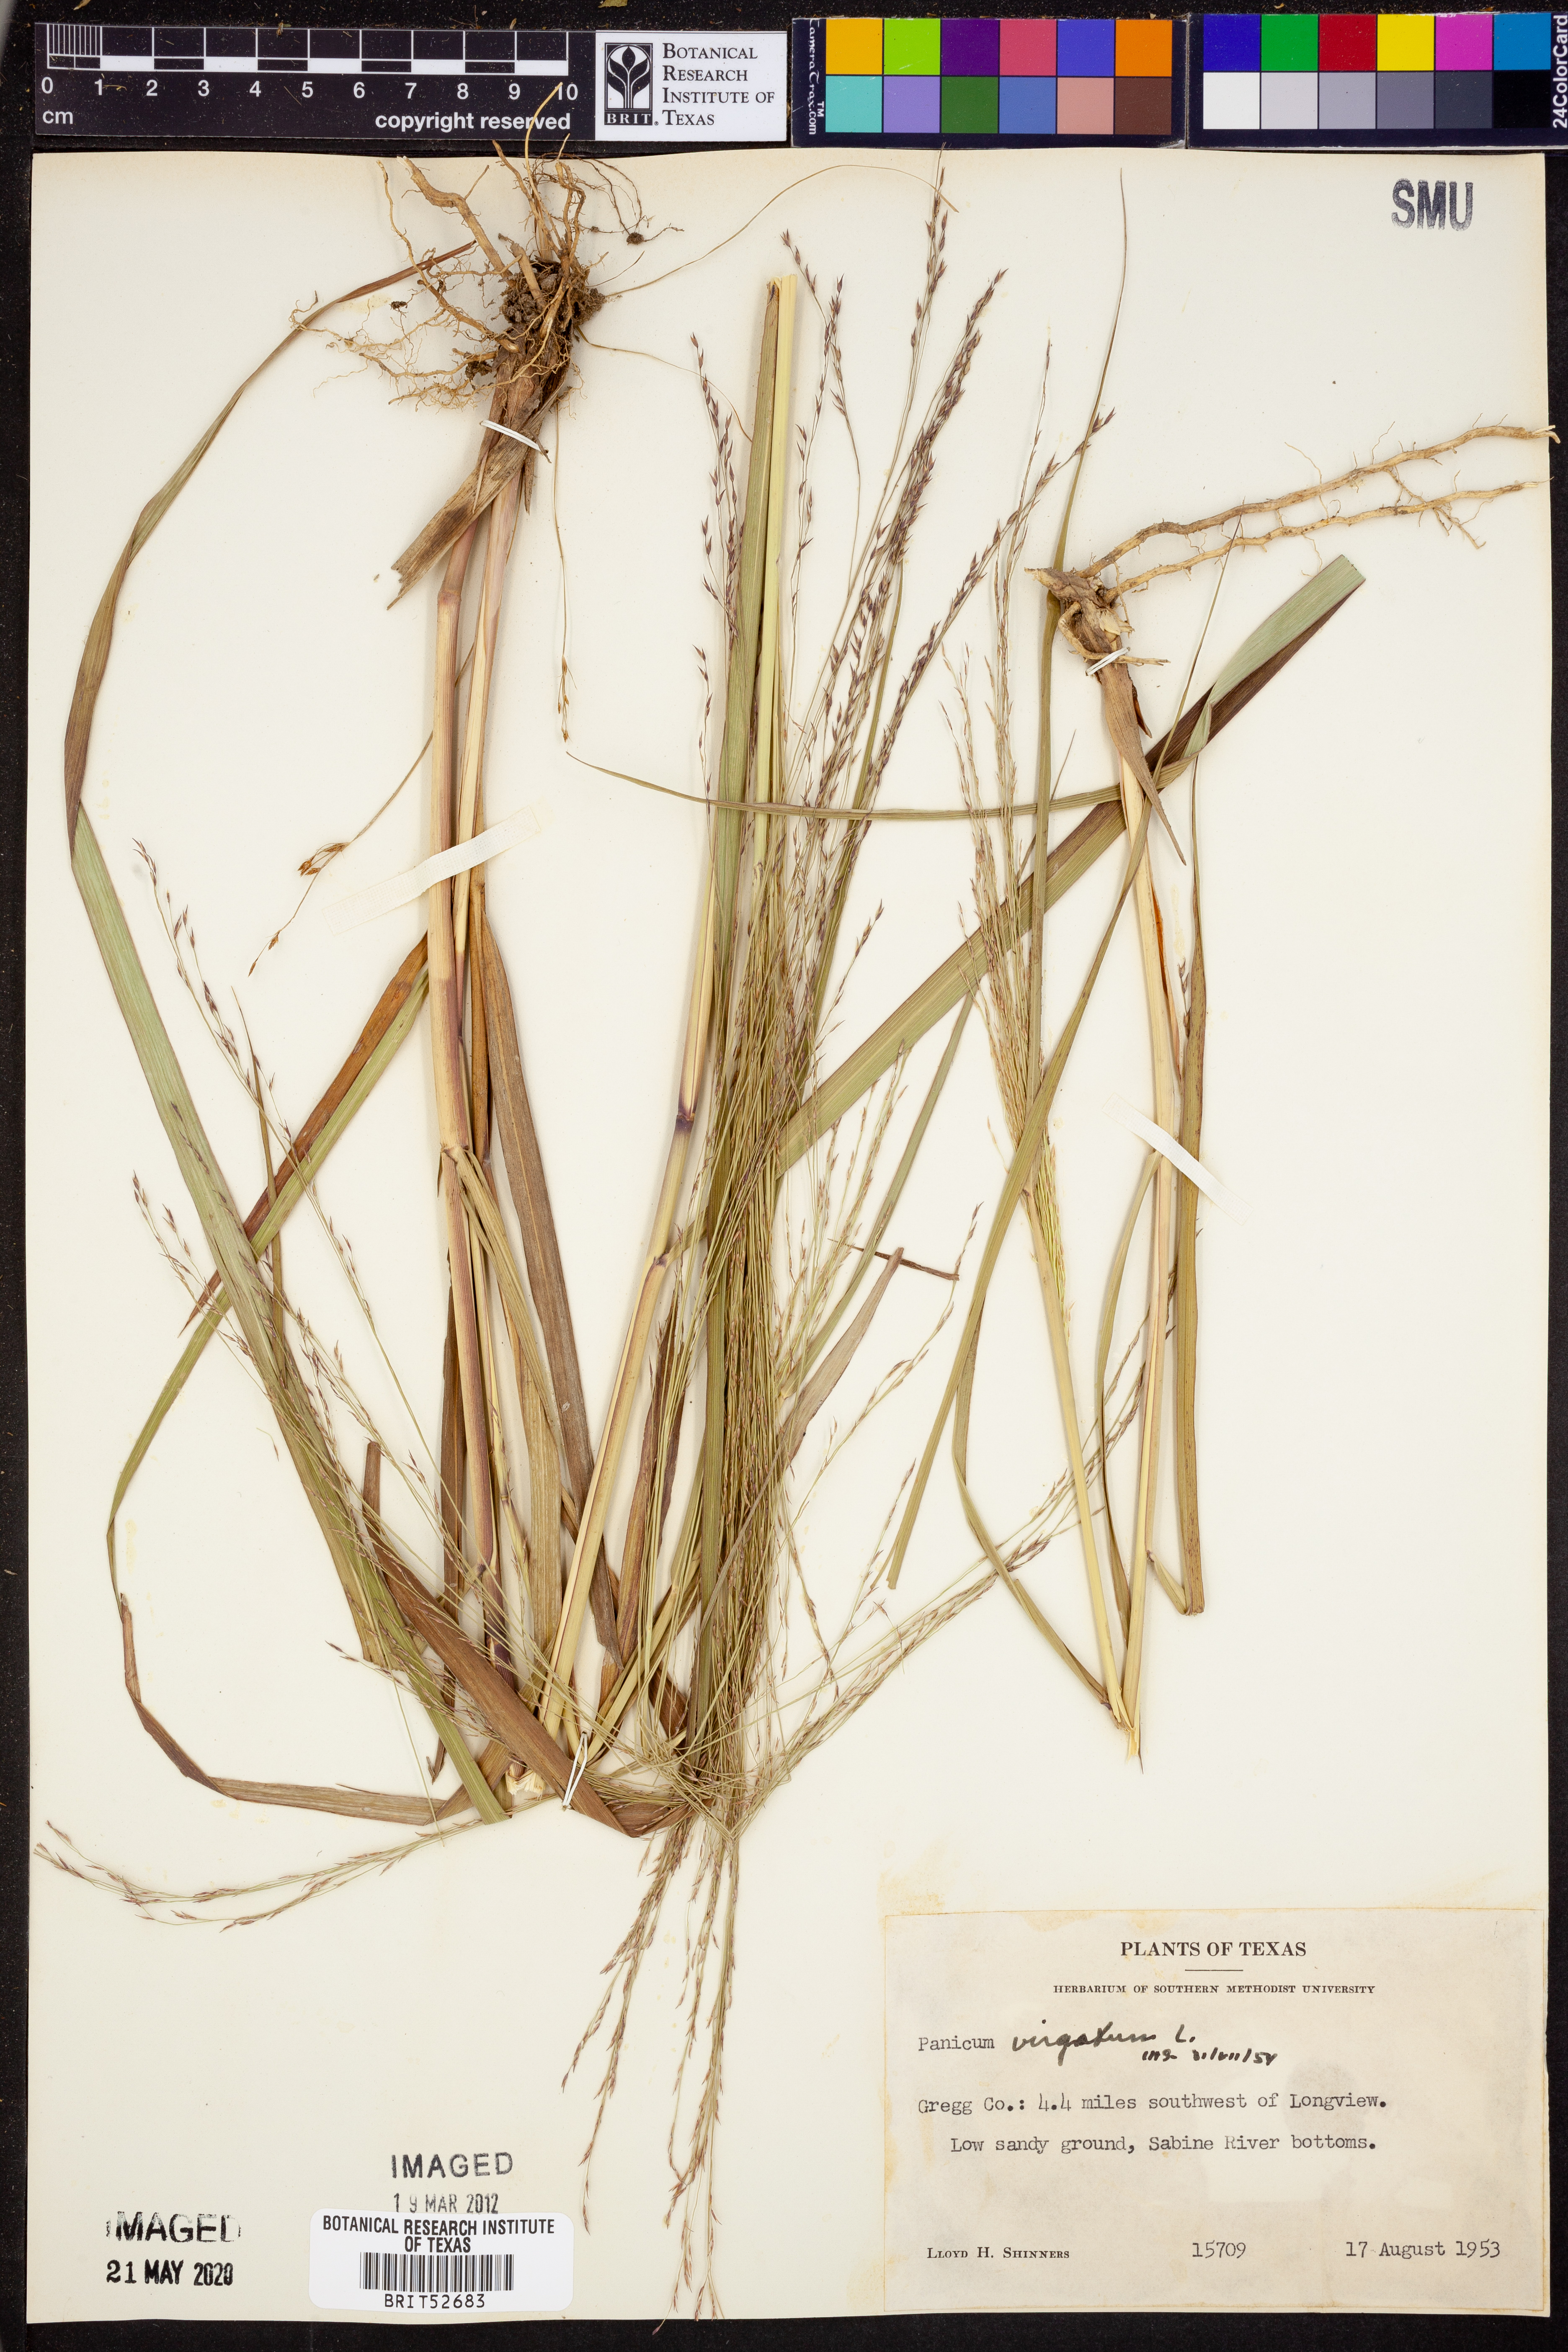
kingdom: Plantae
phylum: Tracheophyta
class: Liliopsida
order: Poales
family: Poaceae
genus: Panicum
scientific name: Panicum virgatum
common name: Switchgrass
